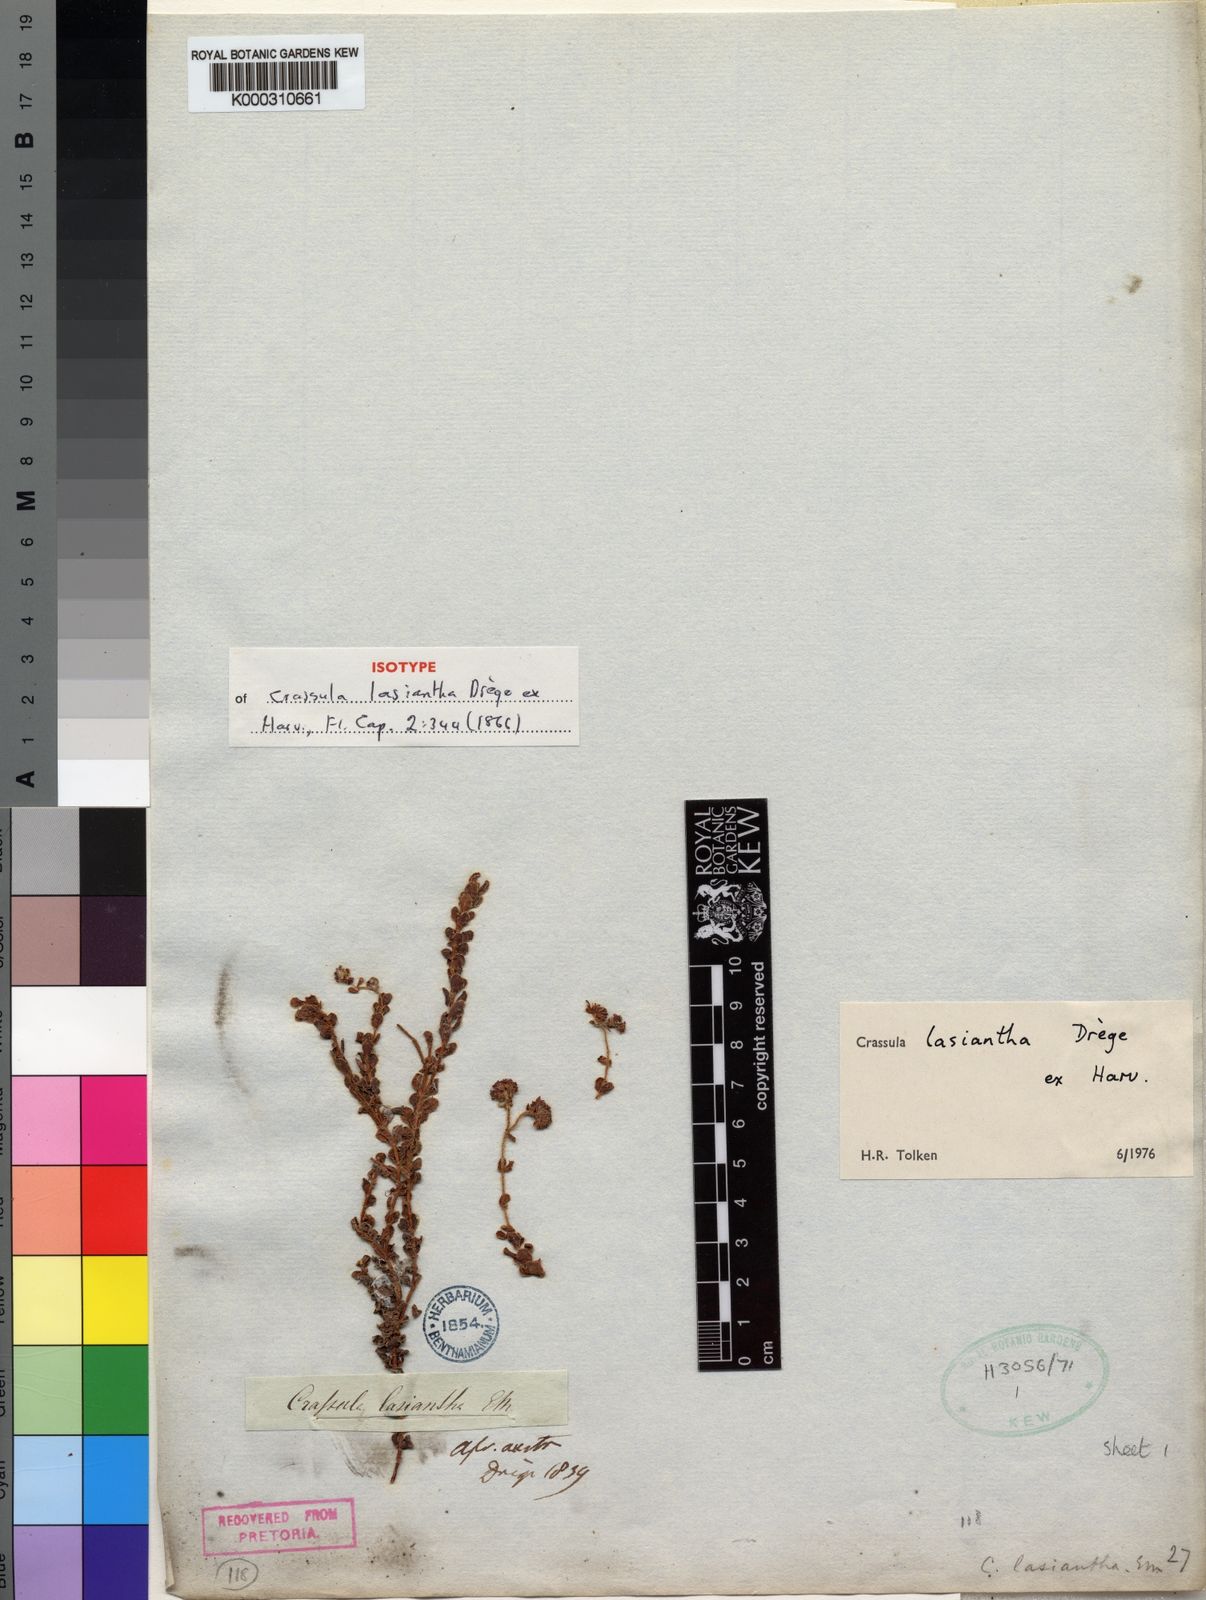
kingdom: Plantae
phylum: Tracheophyta
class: Magnoliopsida
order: Saxifragales
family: Crassulaceae
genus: Crassula
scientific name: Crassula
